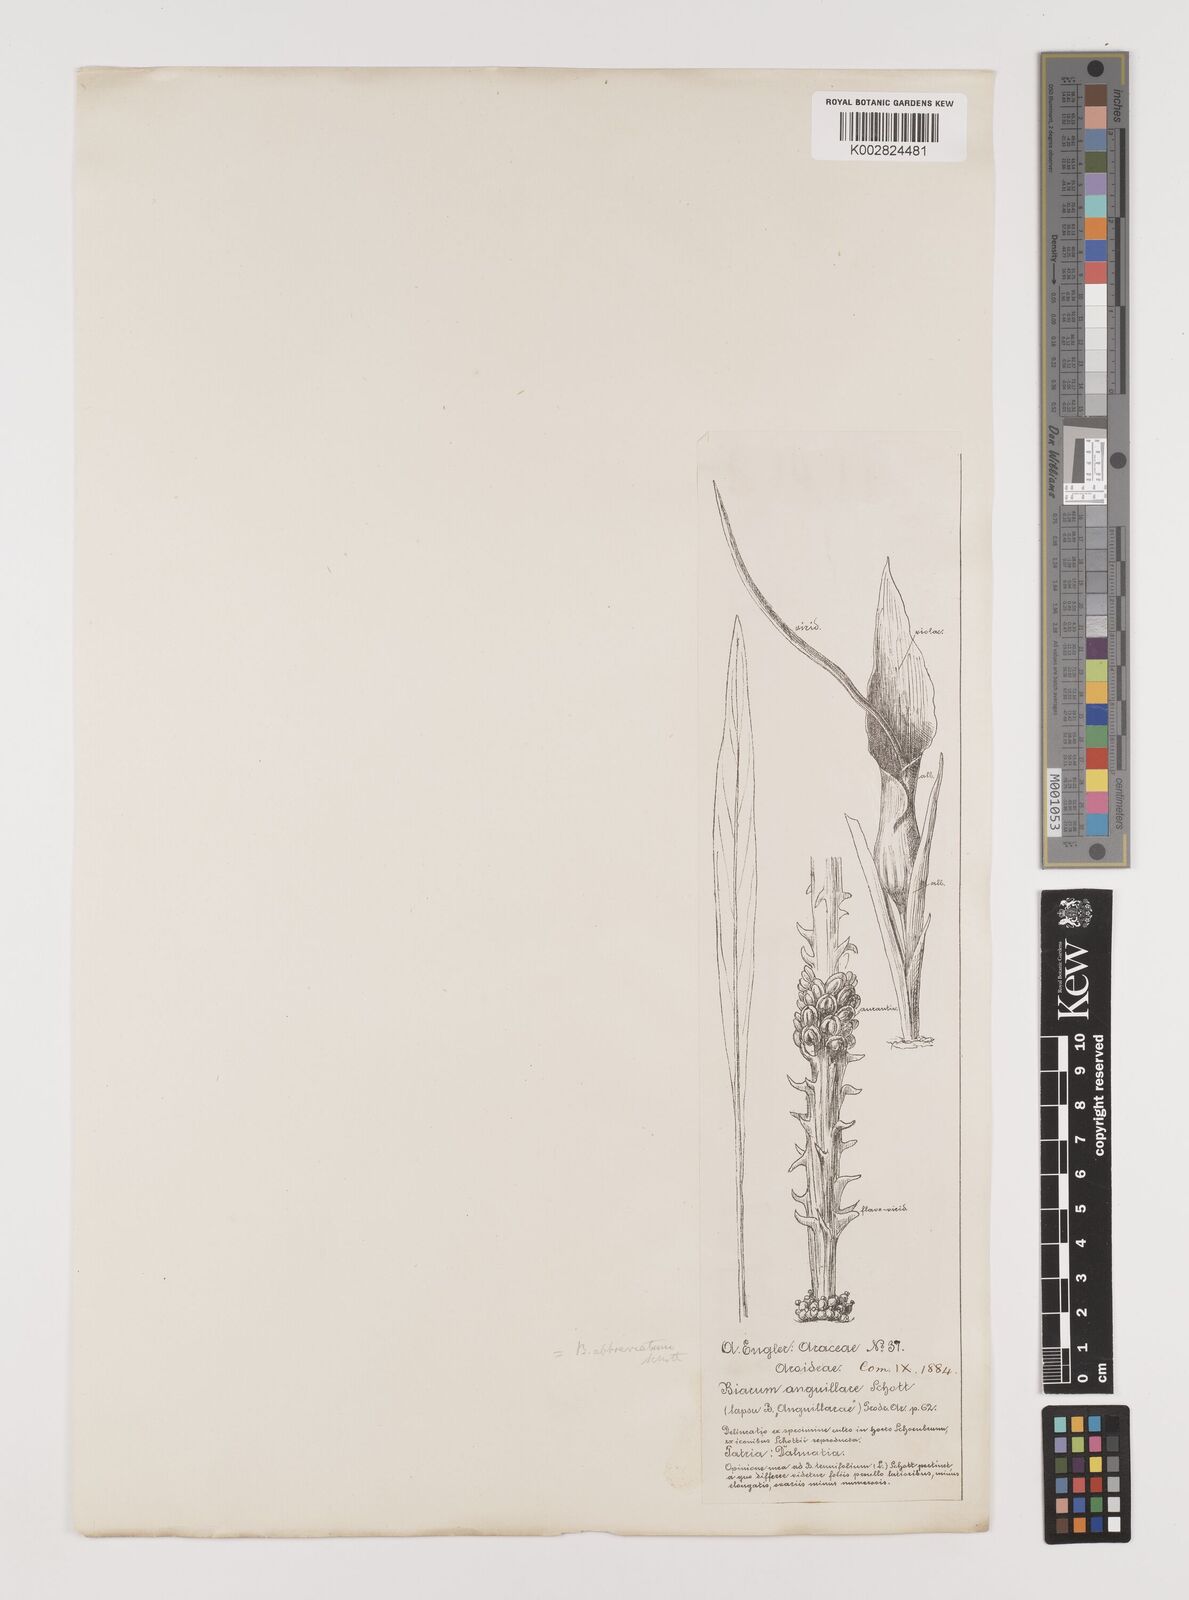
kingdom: Plantae
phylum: Tracheophyta
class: Liliopsida
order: Alismatales
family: Araceae
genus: Biarum
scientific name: Biarum tenuifolium
